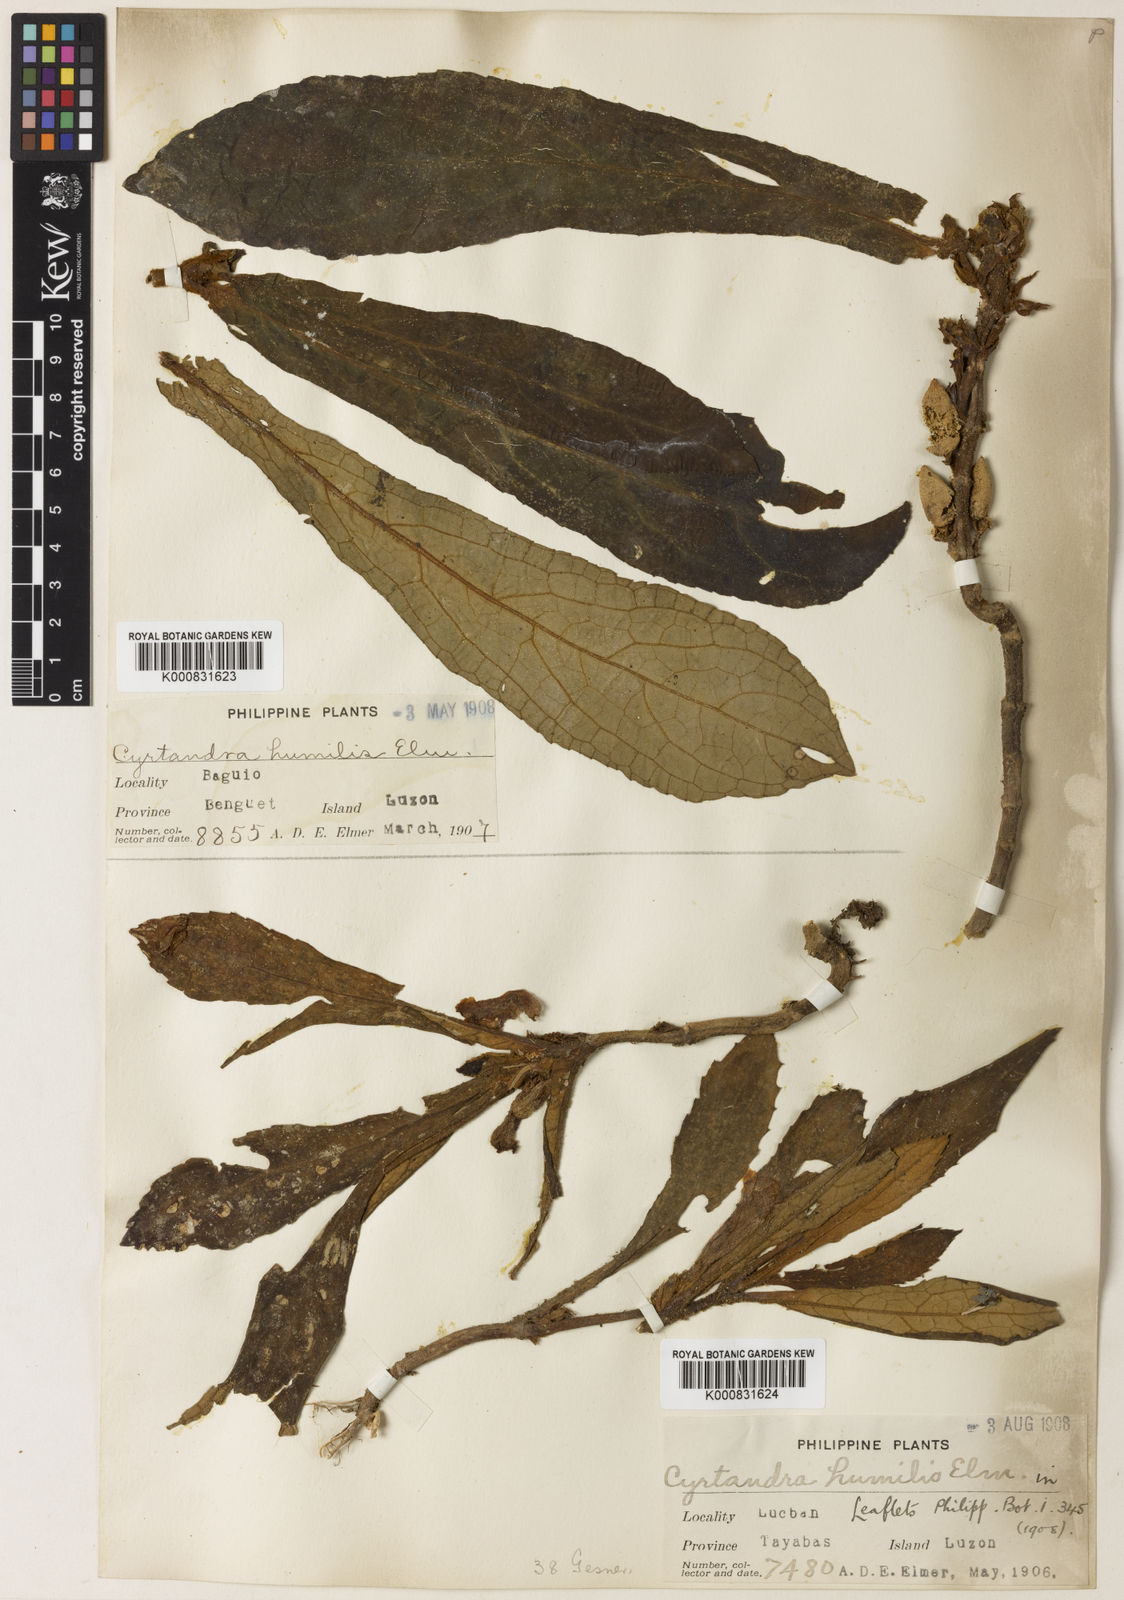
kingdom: Plantae
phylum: Tracheophyta
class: Magnoliopsida
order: Lamiales
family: Gesneriaceae
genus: Cyrtandra
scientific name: Cyrtandra coriaceifolia
